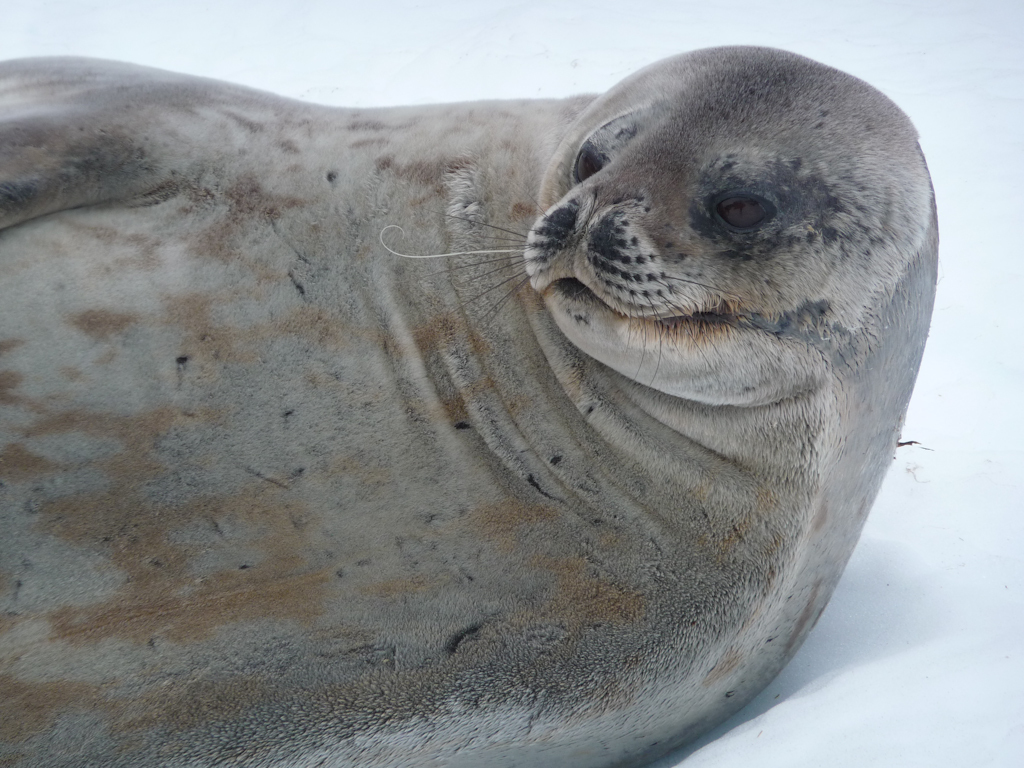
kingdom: Animalia
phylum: Chordata
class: Mammalia
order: Carnivora
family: Phocidae
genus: Leptonychotes
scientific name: Leptonychotes weddellii
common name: Weddell Seal
